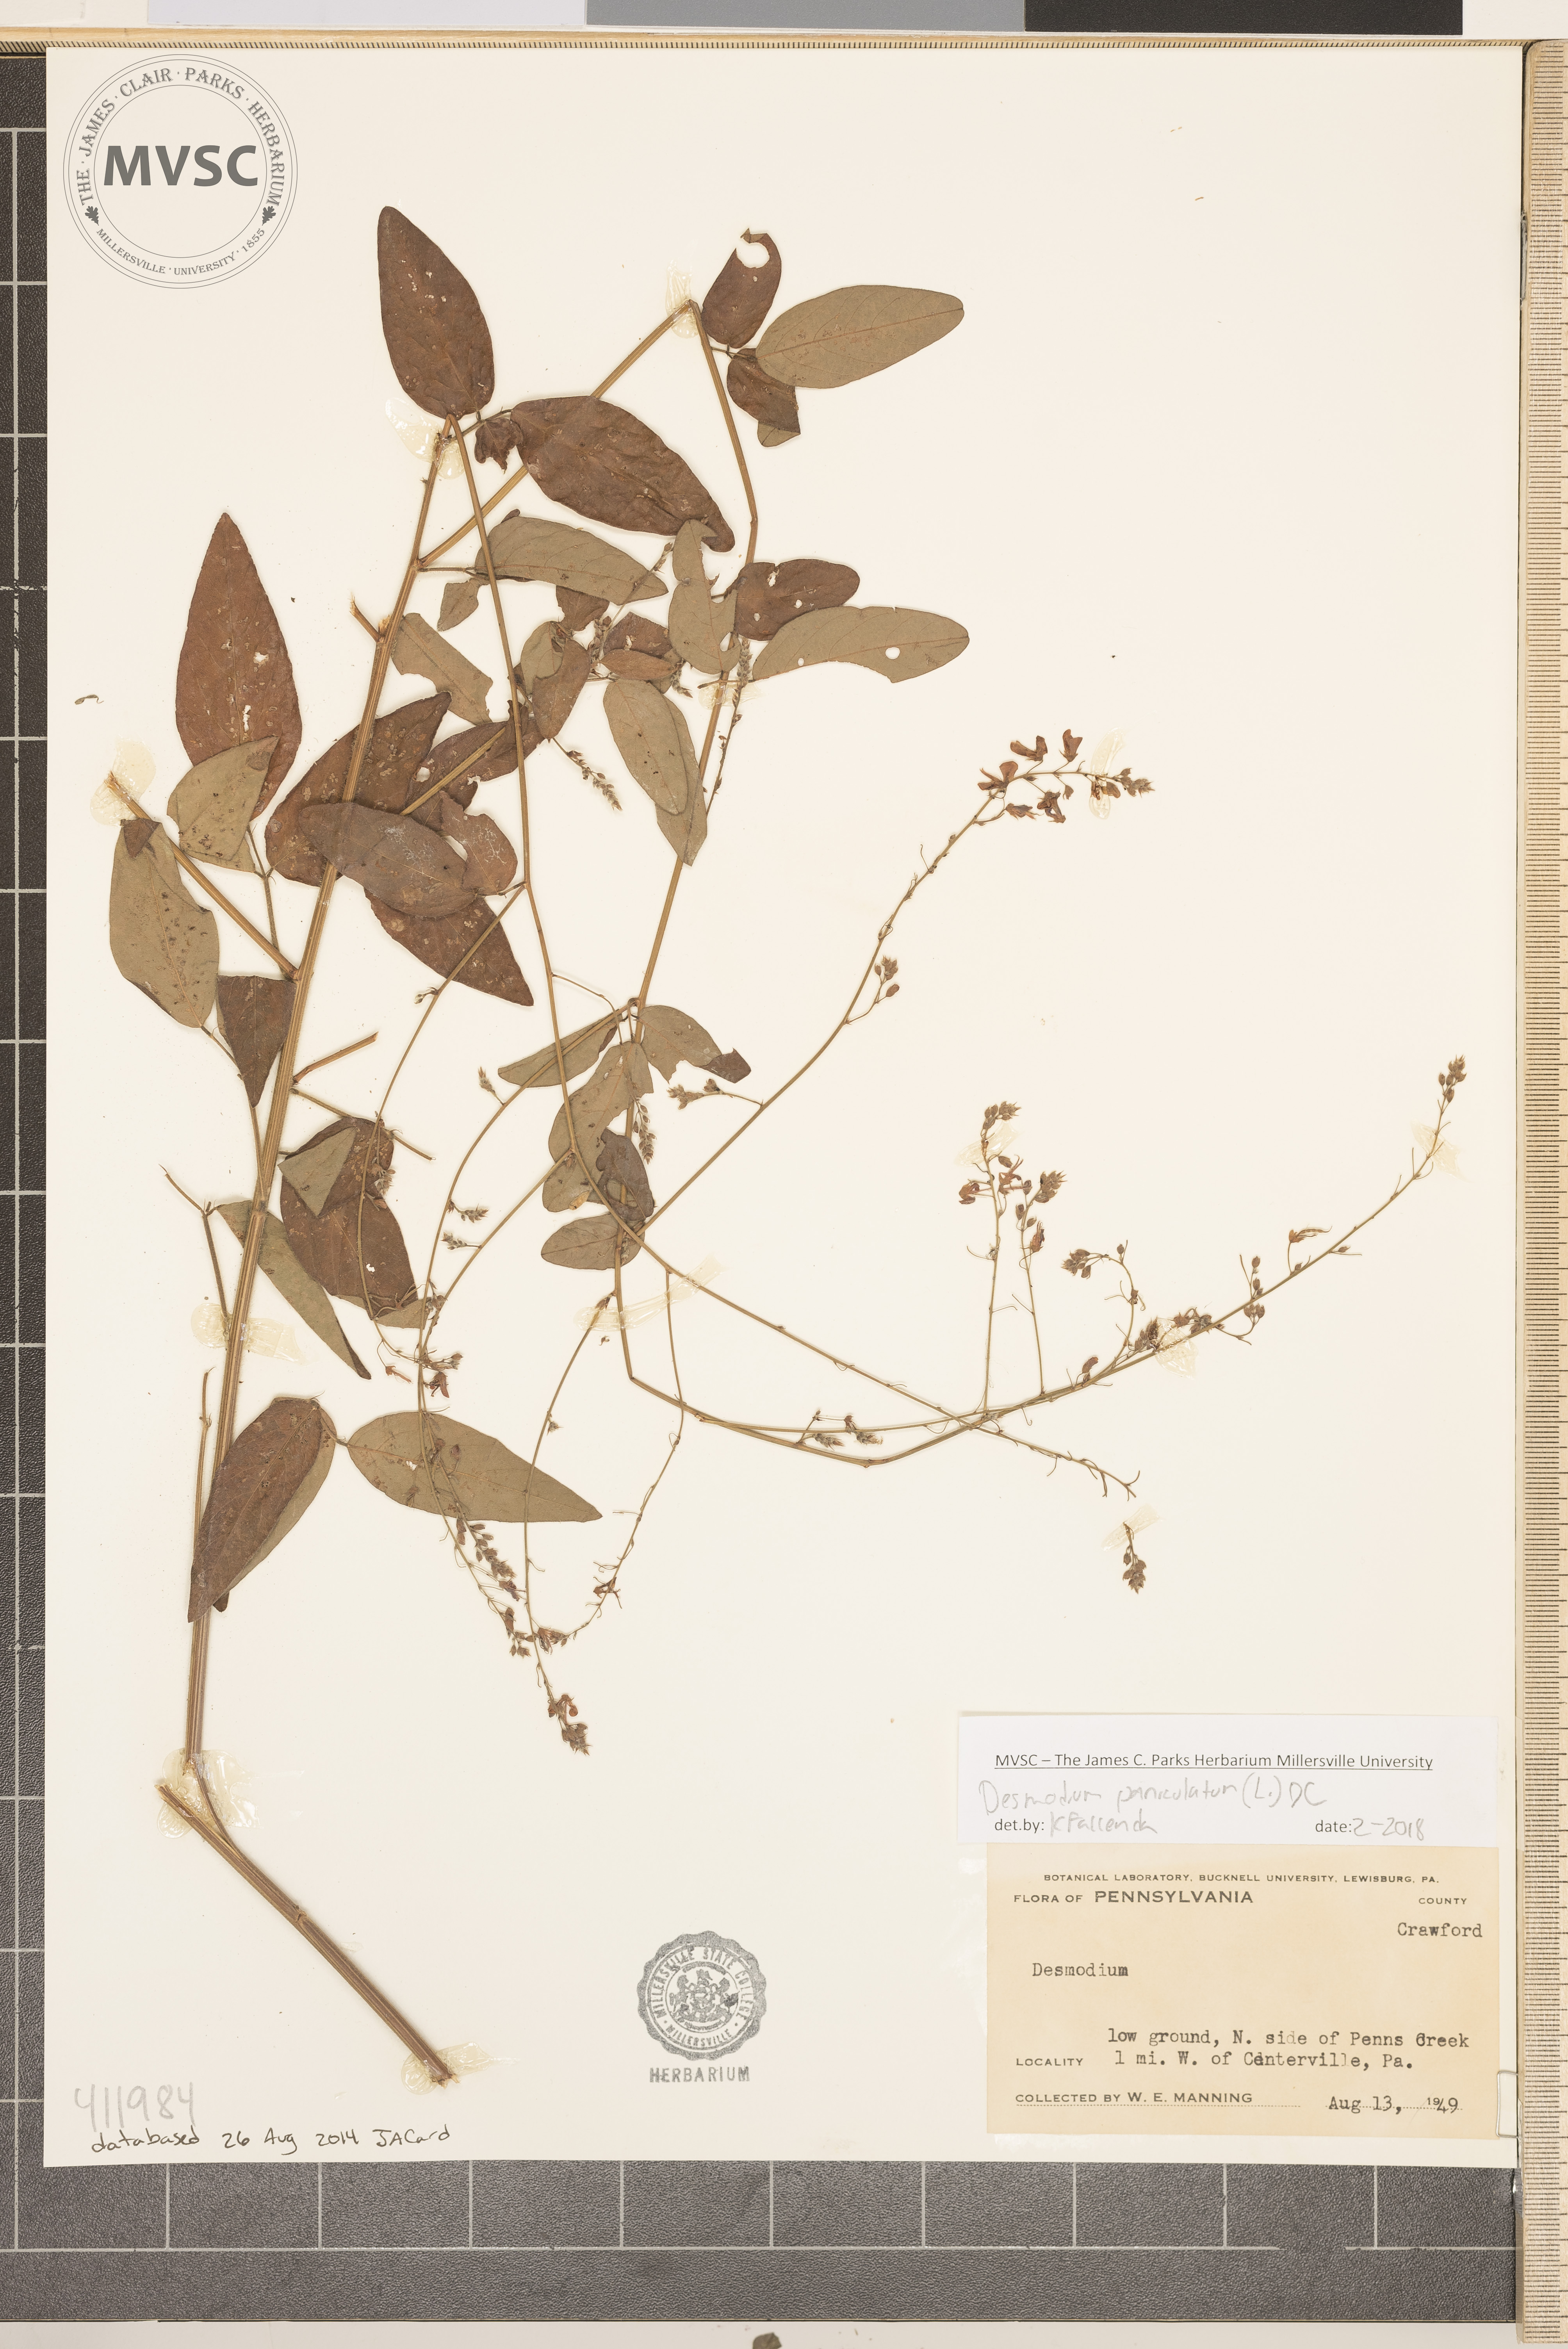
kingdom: Plantae
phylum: Tracheophyta
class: Magnoliopsida
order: Fabales
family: Fabaceae
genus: Desmodium
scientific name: Desmodium paniculatum
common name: Panicled tick-clover
